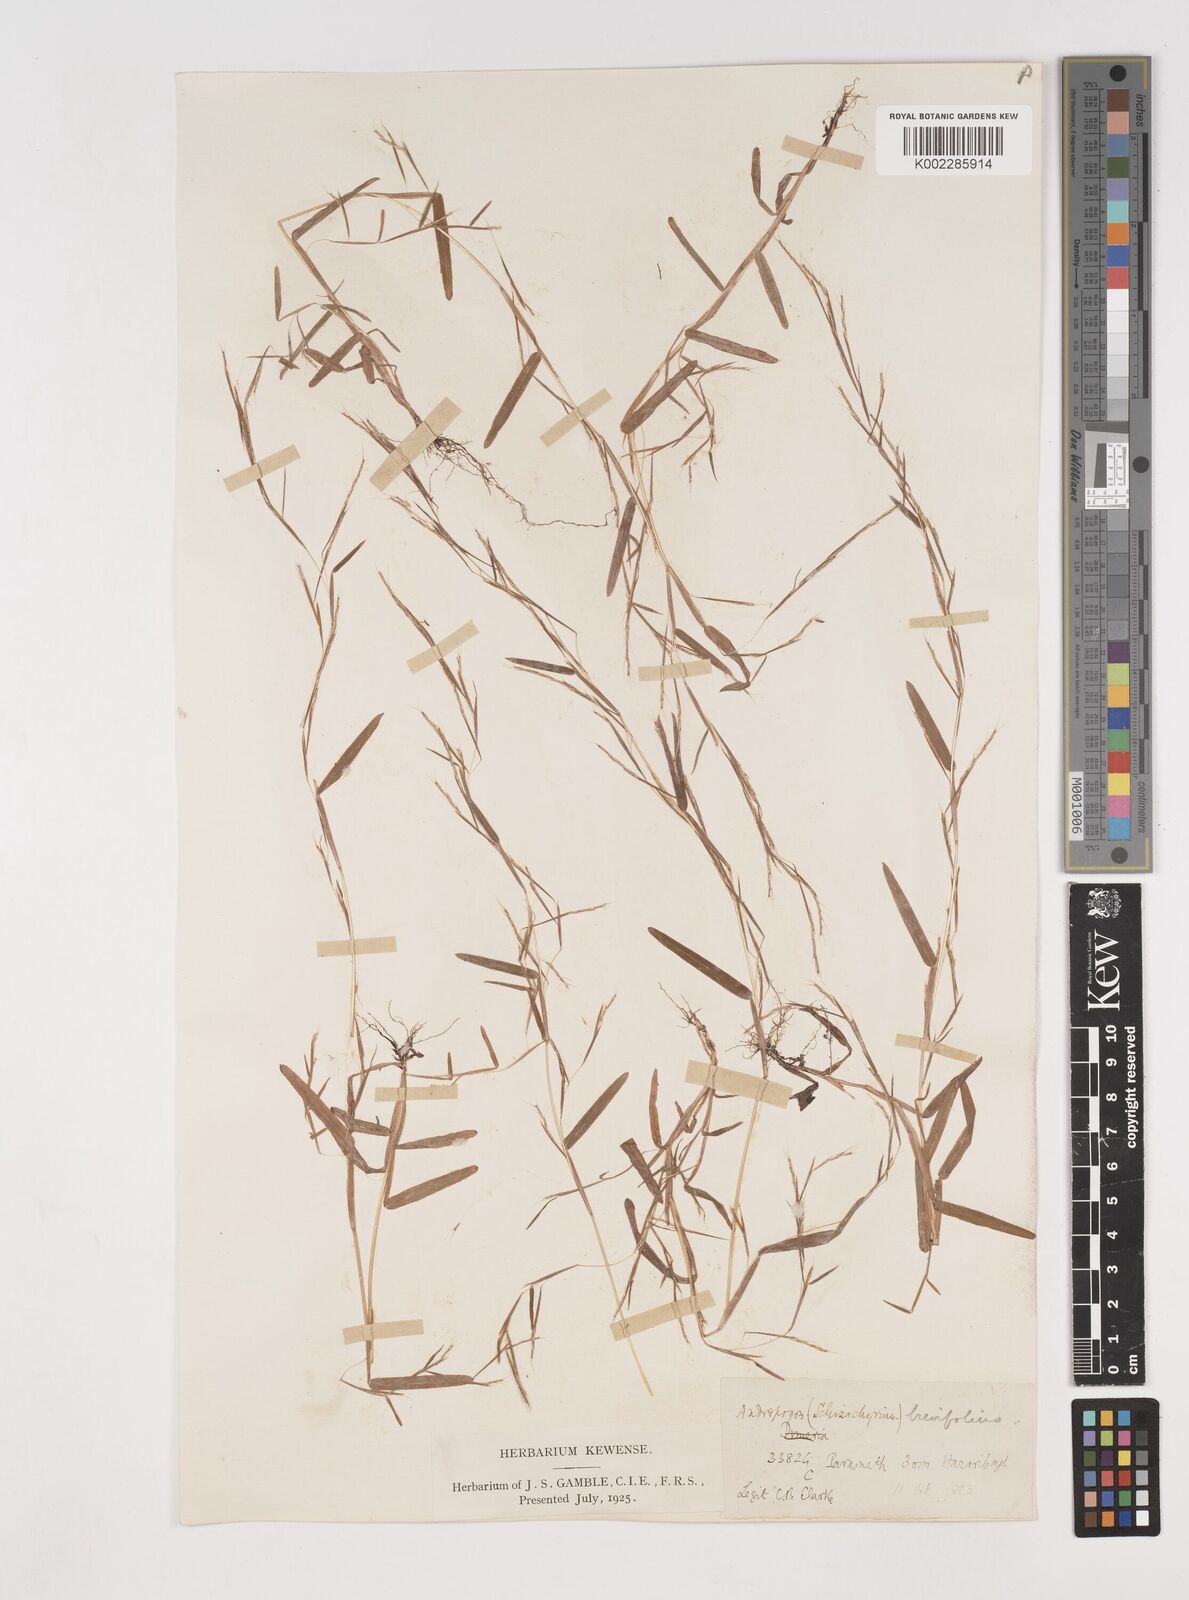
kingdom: Plantae
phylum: Tracheophyta
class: Liliopsida
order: Poales
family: Poaceae
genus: Schizachyrium
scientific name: Schizachyrium brevifolium
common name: Serillo dulce
